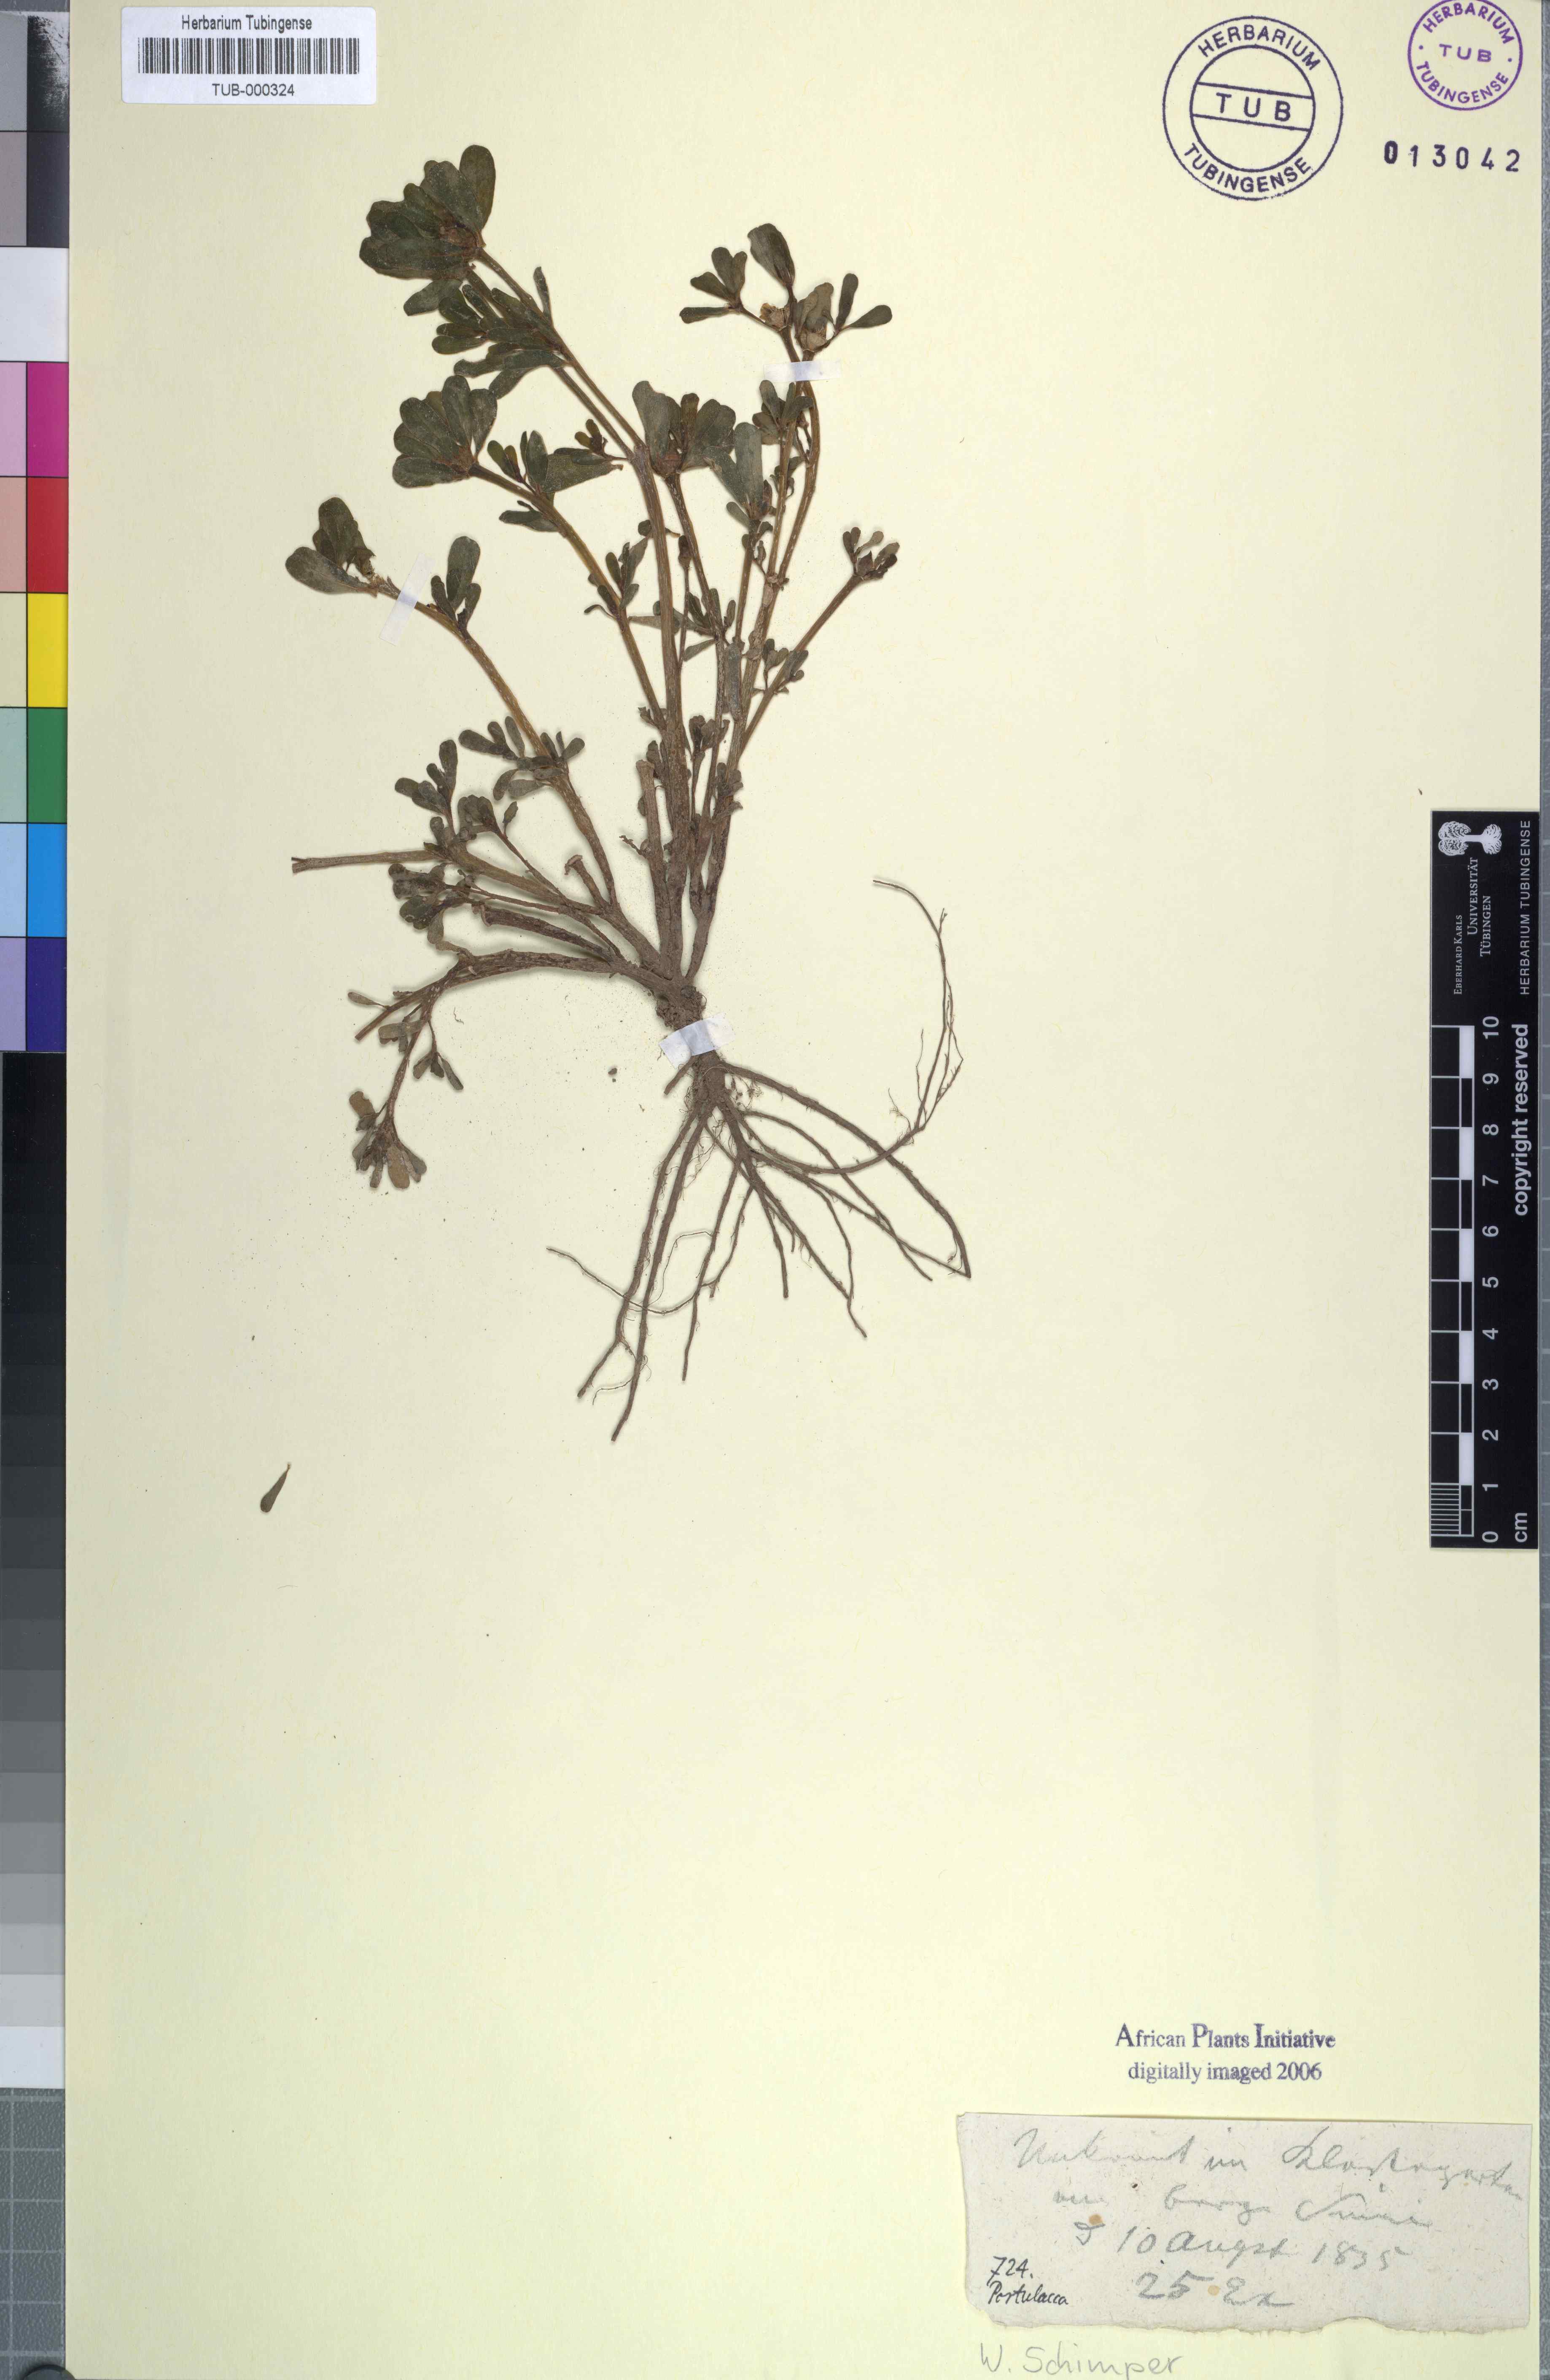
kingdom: Plantae
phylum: Tracheophyta
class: Magnoliopsida
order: Caryophyllales
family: Portulacaceae
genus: Portulacca
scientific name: Portulacca
